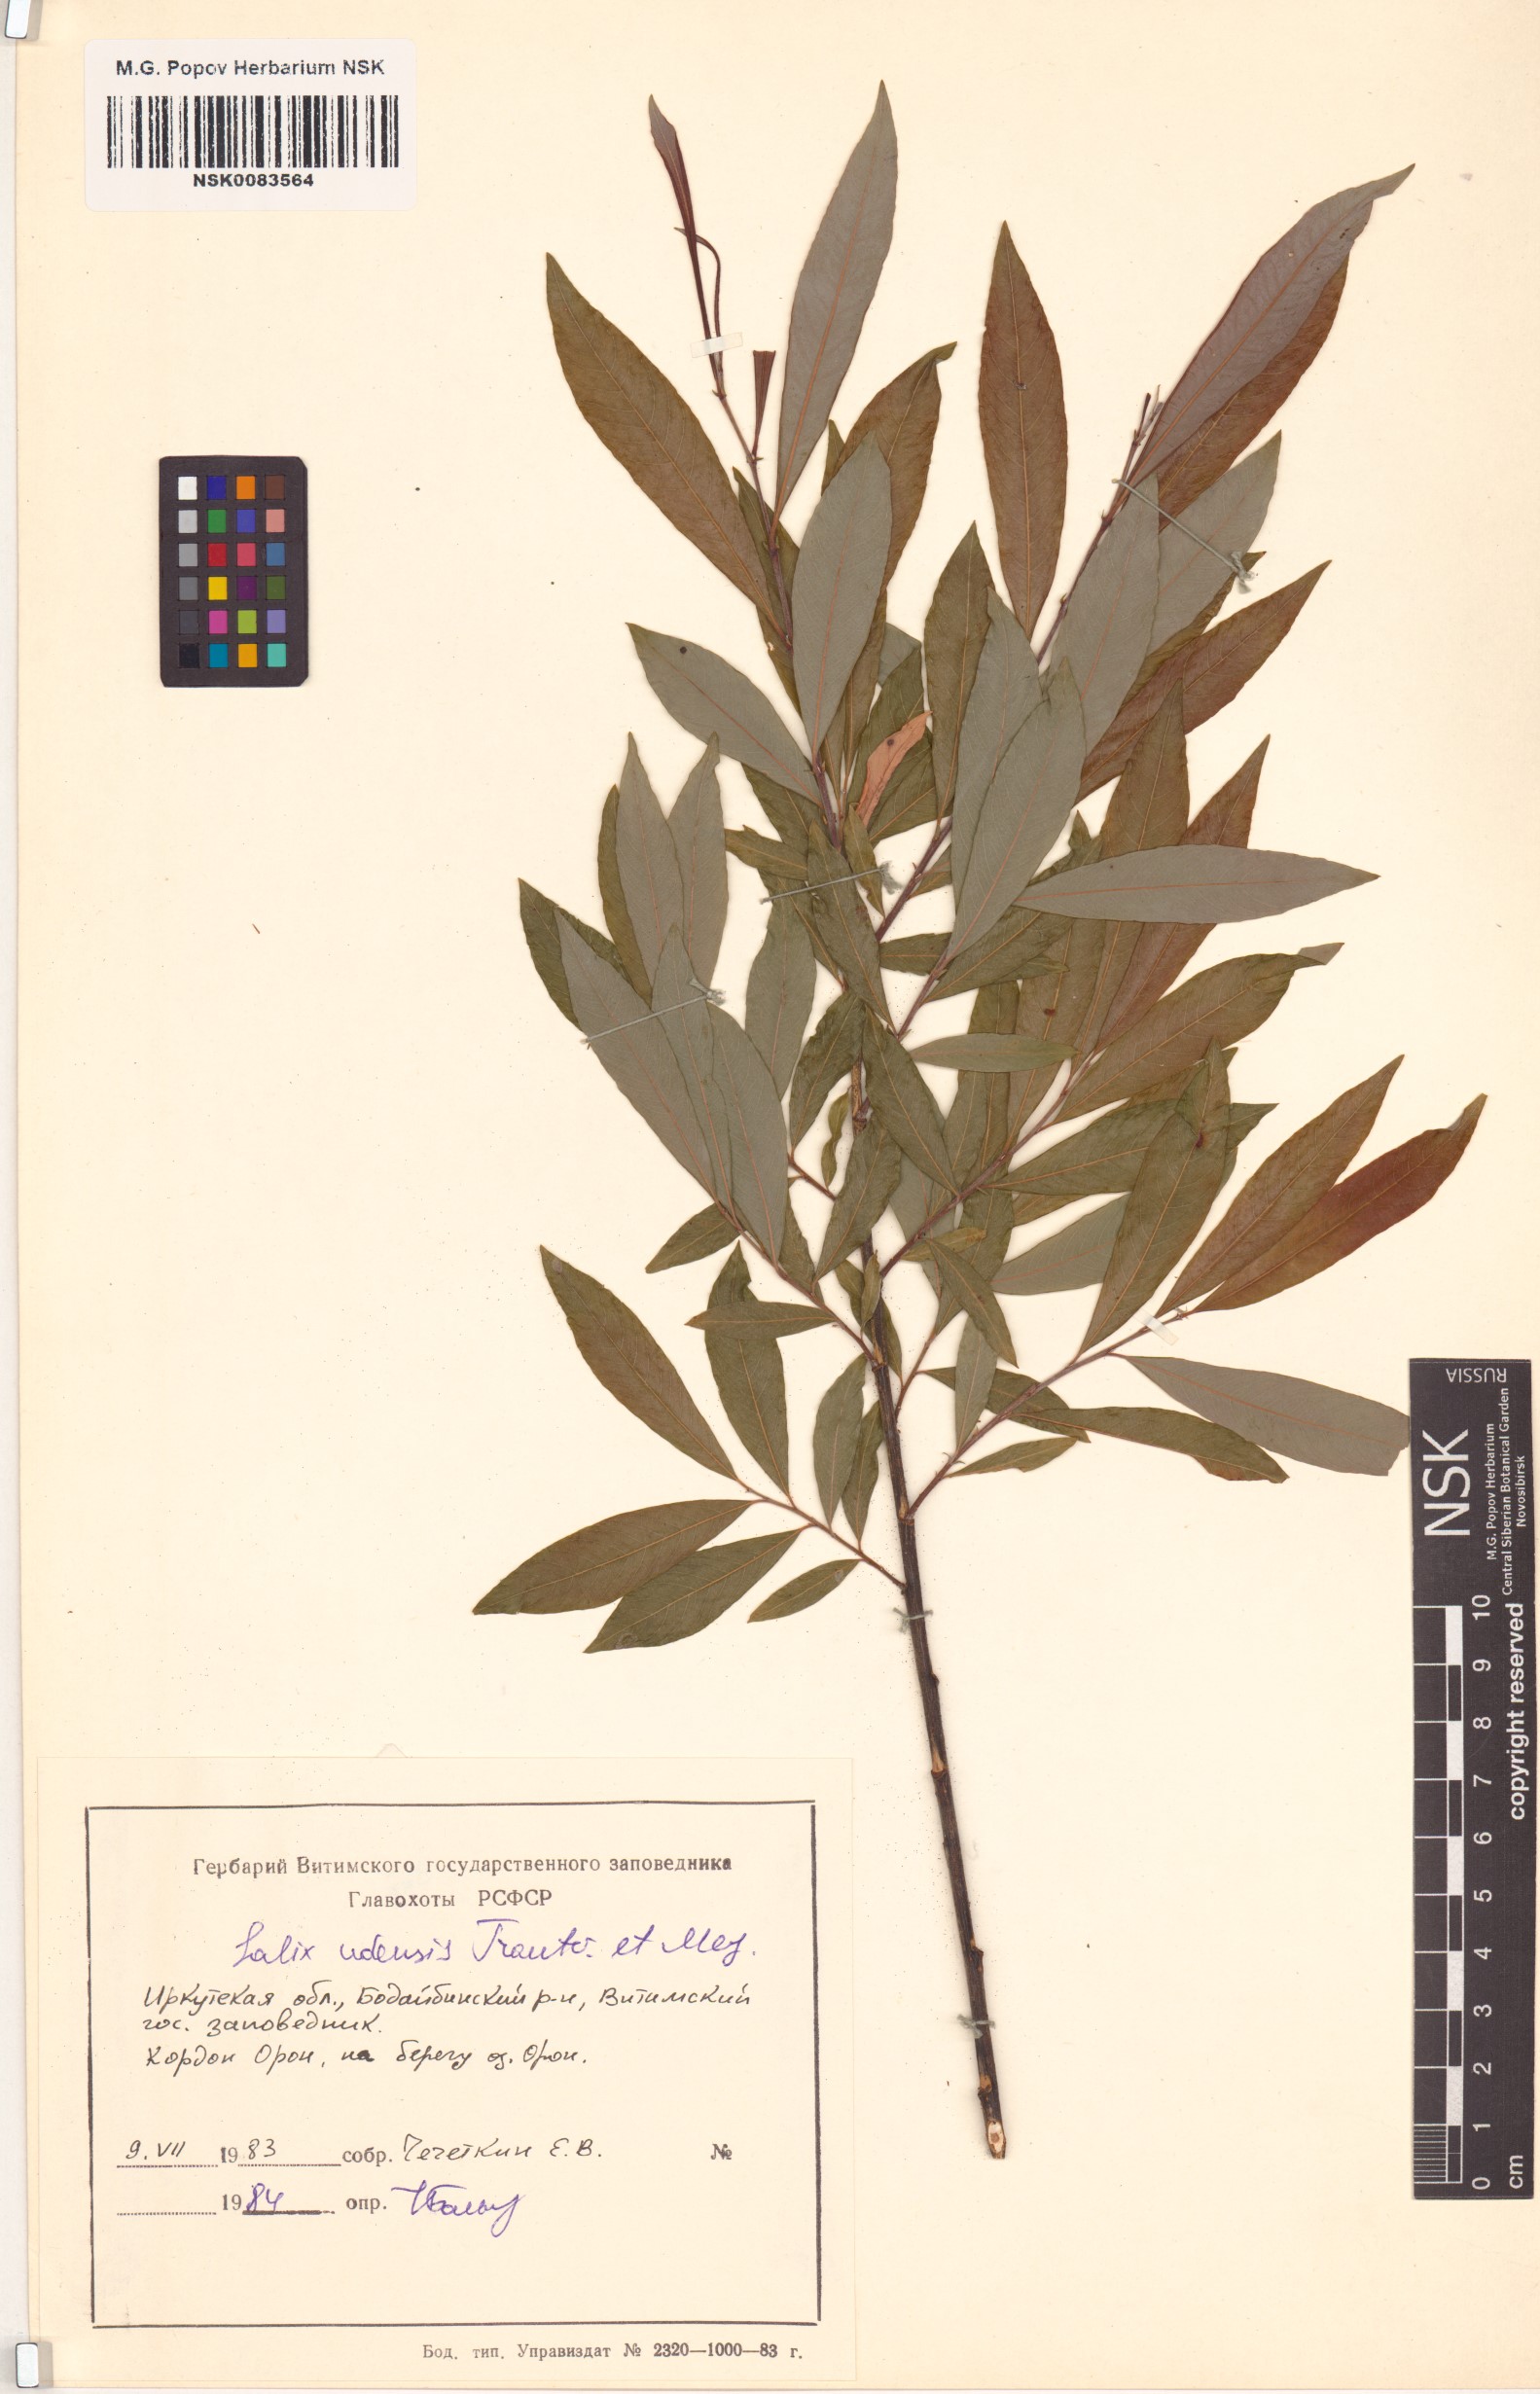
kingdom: Plantae
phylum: Tracheophyta
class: Magnoliopsida
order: Malpighiales
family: Salicaceae
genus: Salix
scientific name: Salix udensis
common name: Sachalin willow
